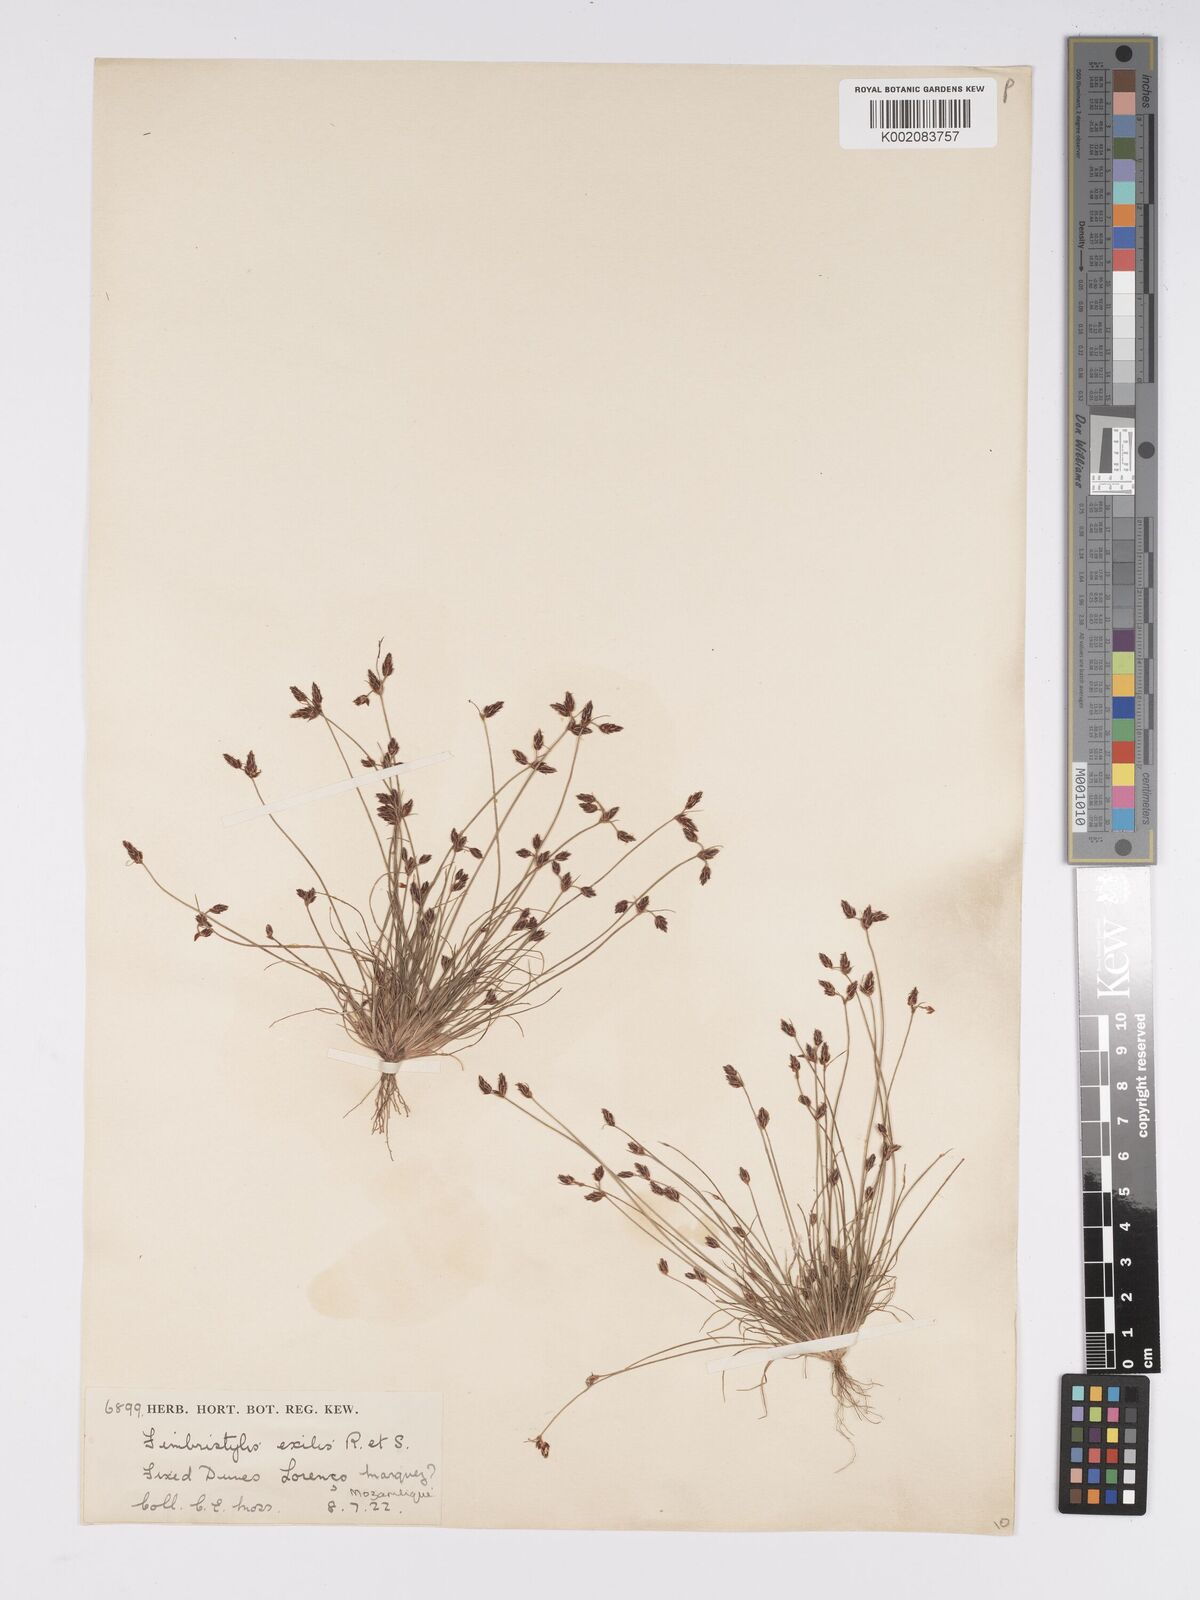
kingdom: Plantae
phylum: Tracheophyta
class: Liliopsida
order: Poales
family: Cyperaceae
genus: Bulbostylis
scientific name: Bulbostylis hispidula
